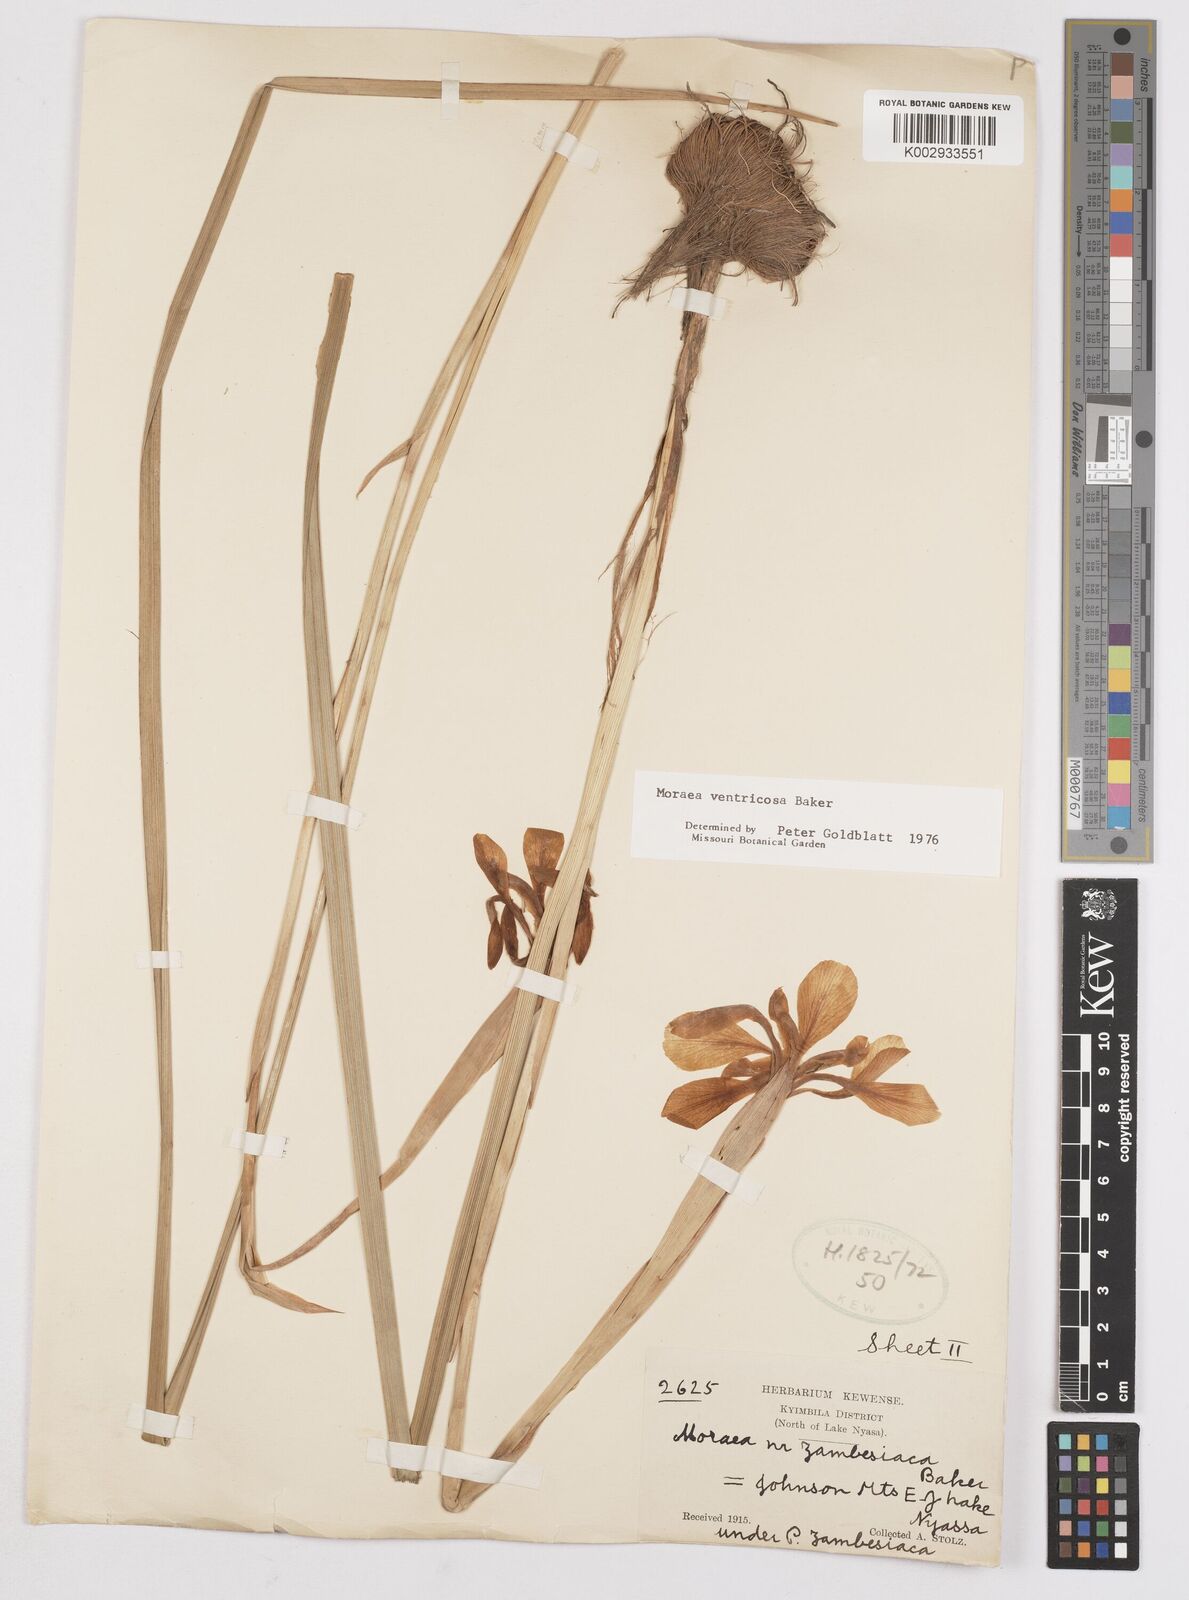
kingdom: Plantae
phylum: Tracheophyta
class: Liliopsida
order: Asparagales
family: Iridaceae
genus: Moraea
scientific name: Moraea ventricosa
